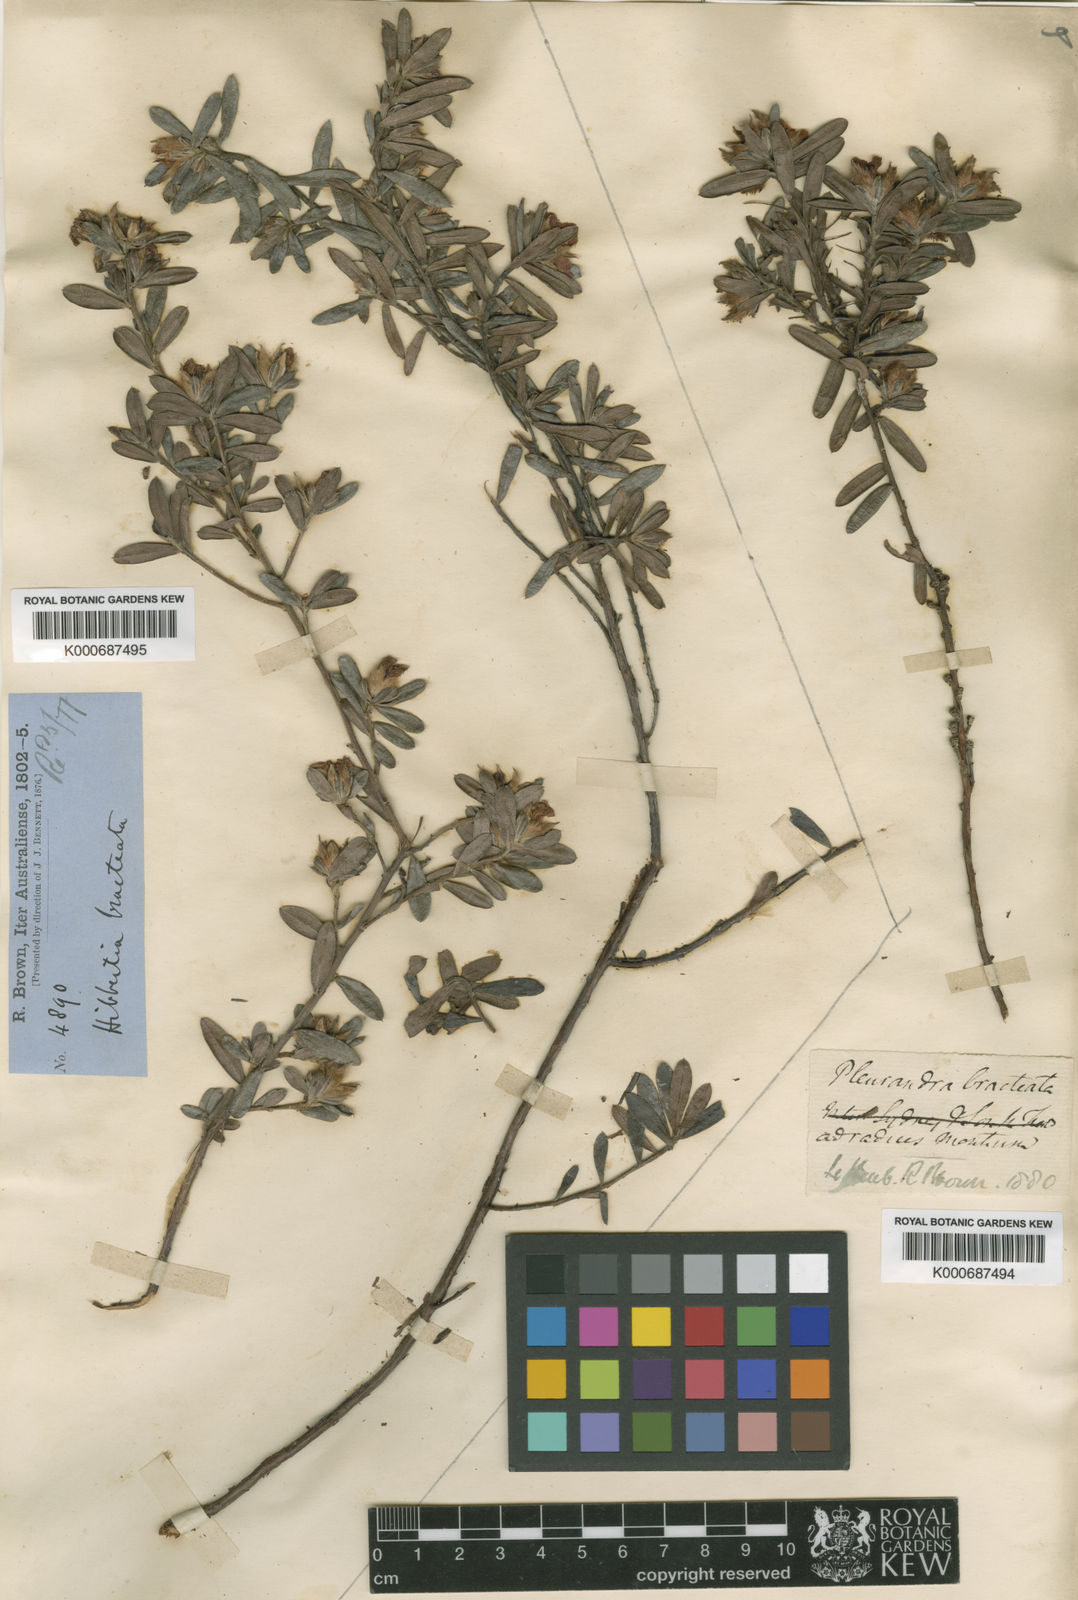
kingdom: Plantae
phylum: Tracheophyta
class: Magnoliopsida
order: Dilleniales
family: Dilleniaceae
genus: Hibbertia
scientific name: Hibbertia bracteata
